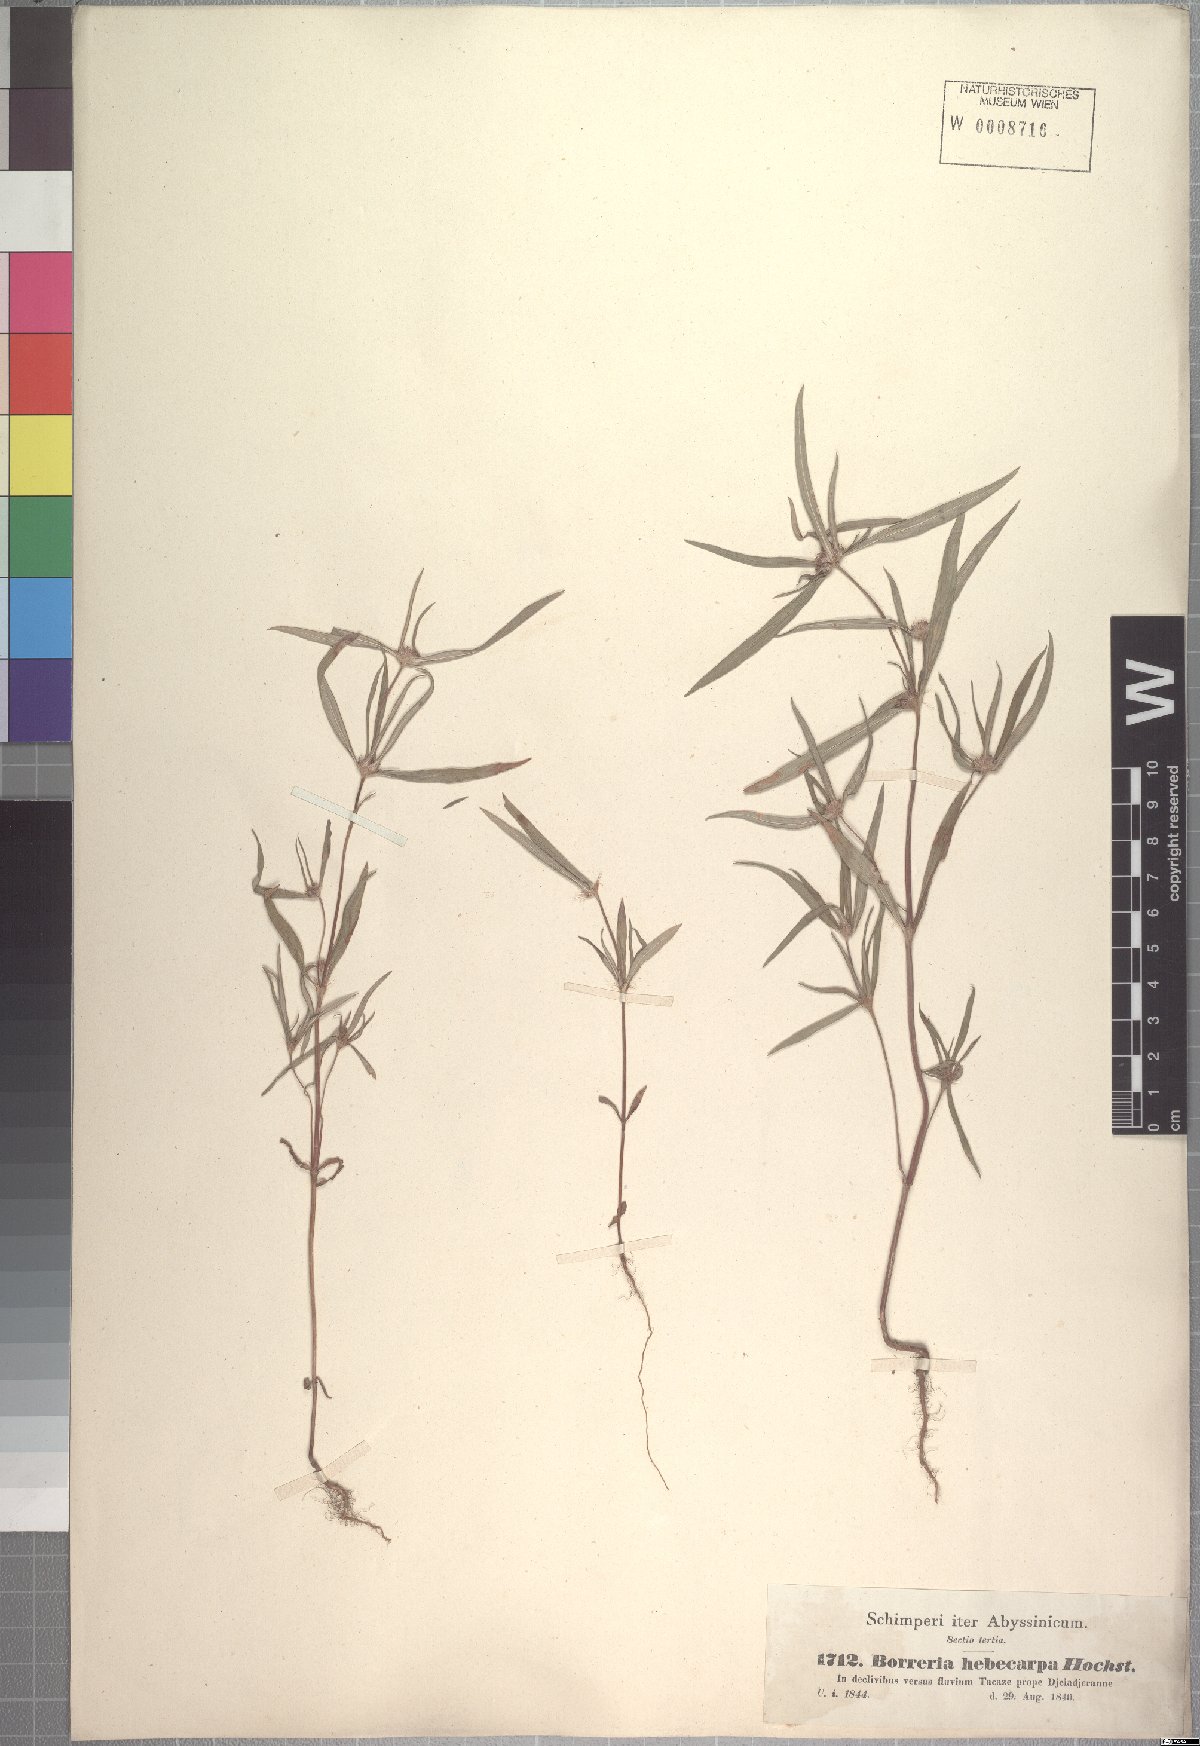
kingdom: Plantae
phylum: Tracheophyta
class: Magnoliopsida
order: Gentianales
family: Rubiaceae
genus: Spermacoce
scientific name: Spermacoce chaetocephala
